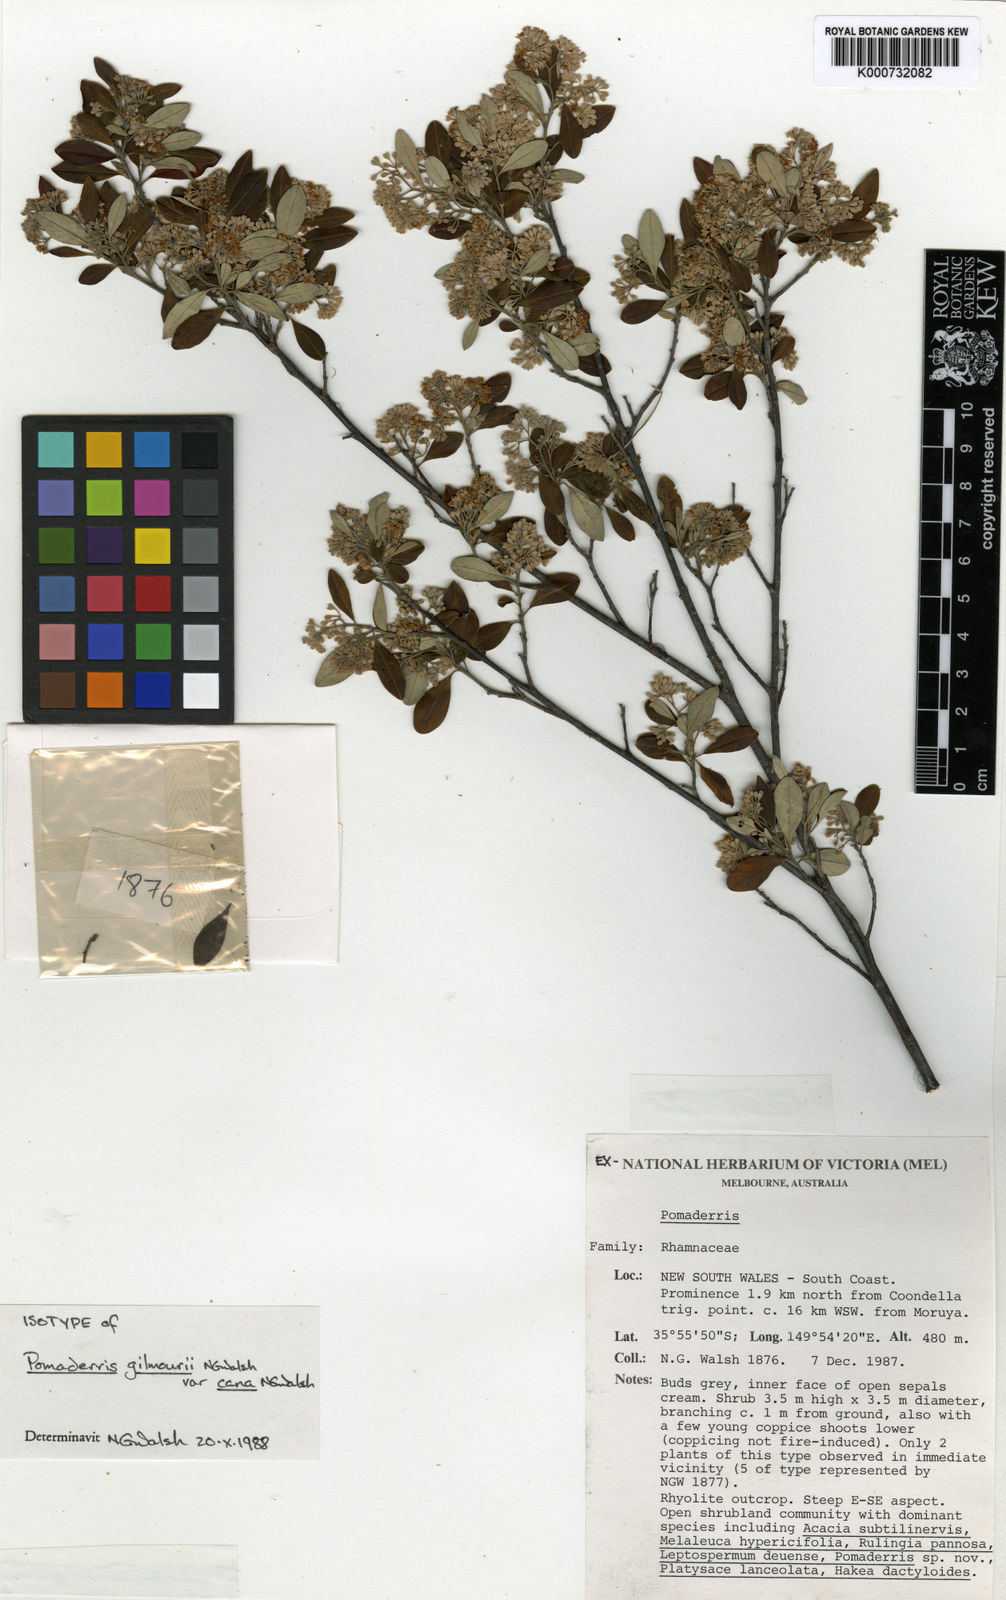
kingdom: Plantae
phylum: Tracheophyta
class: Magnoliopsida
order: Rosales
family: Rhamnaceae
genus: Pomaderris
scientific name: Pomaderris
